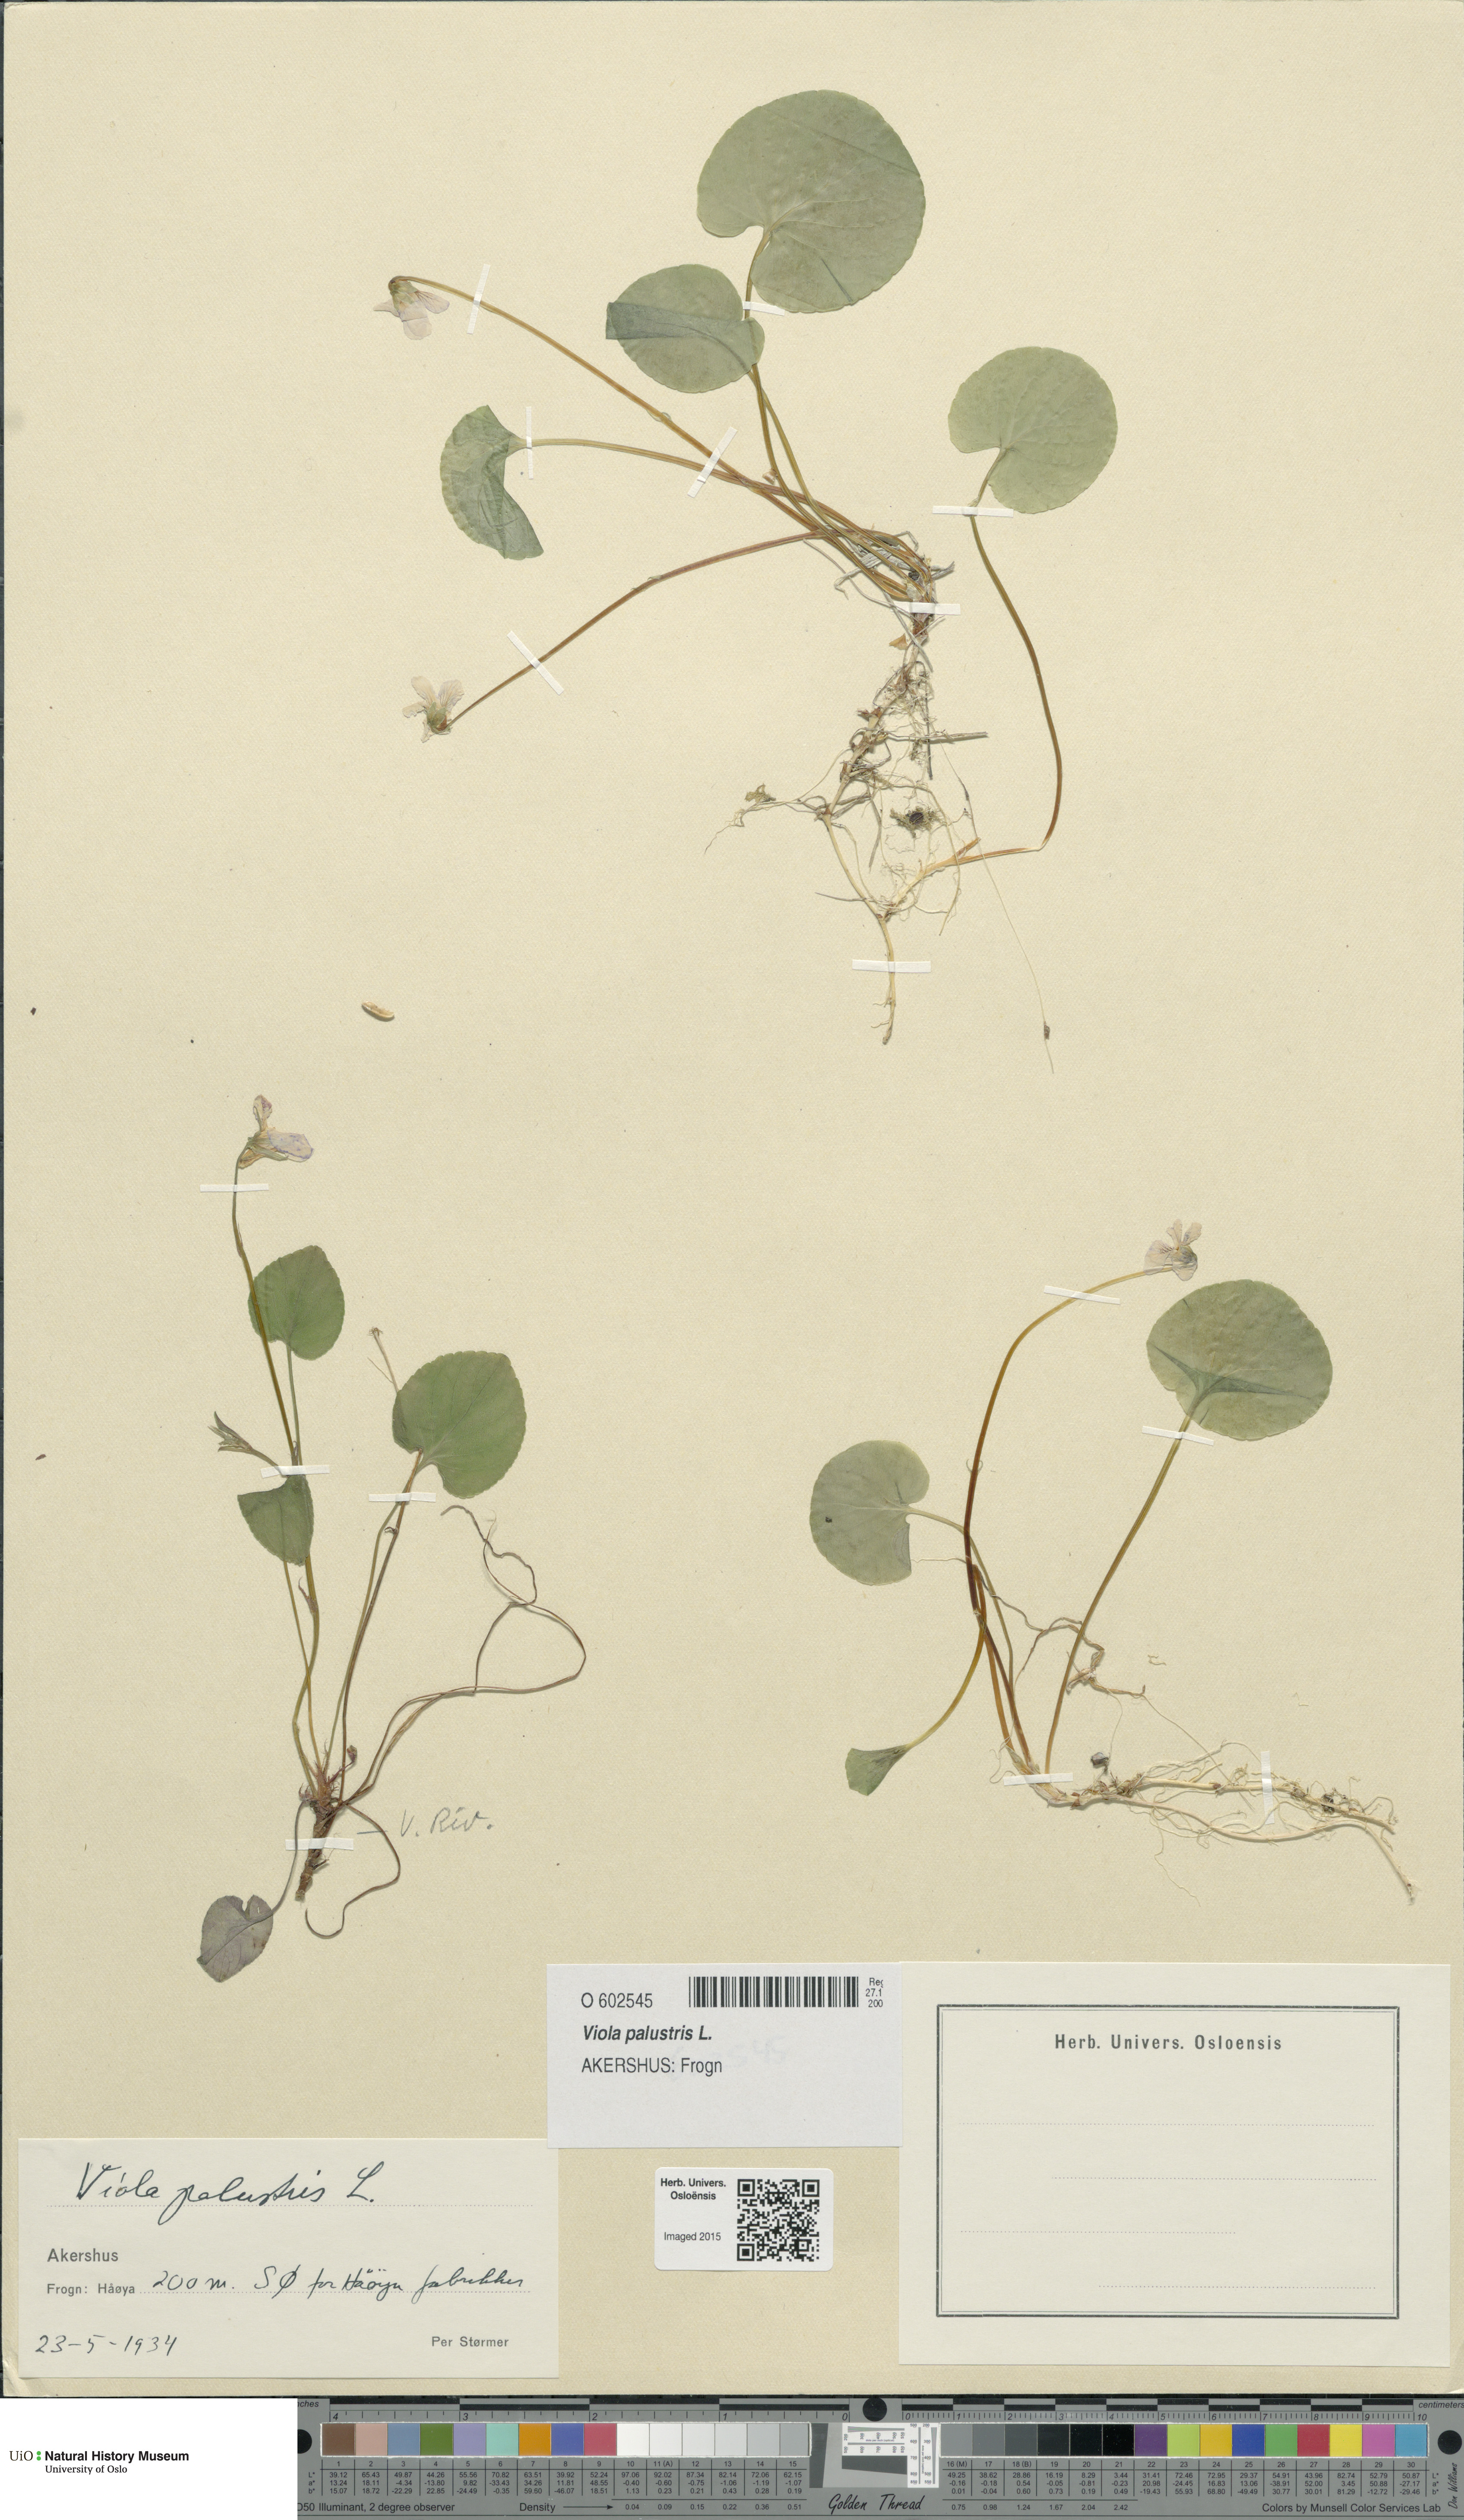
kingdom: Plantae
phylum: Tracheophyta
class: Magnoliopsida
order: Malpighiales
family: Violaceae
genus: Viola
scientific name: Viola palustris
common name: Marsh violet
